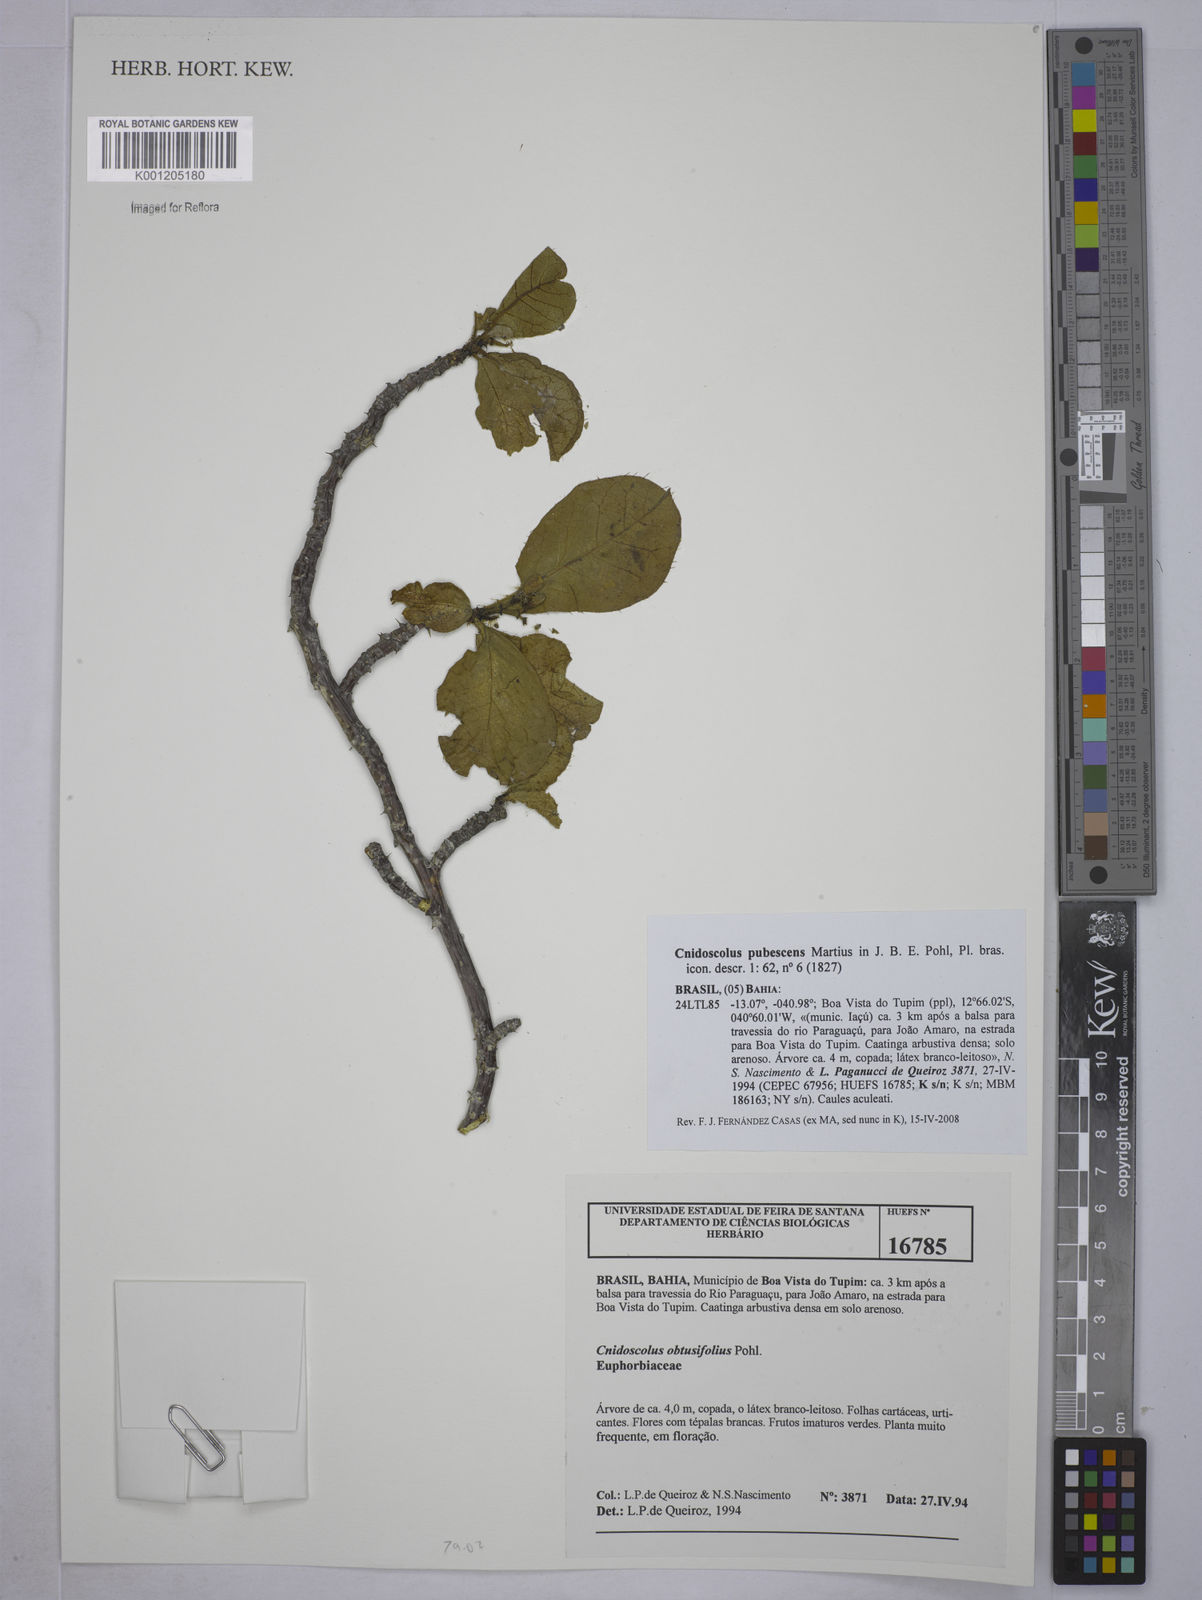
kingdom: Plantae
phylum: Tracheophyta
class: Magnoliopsida
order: Malpighiales
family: Euphorbiaceae
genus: Cnidoscolus
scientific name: Cnidoscolus pubescens
